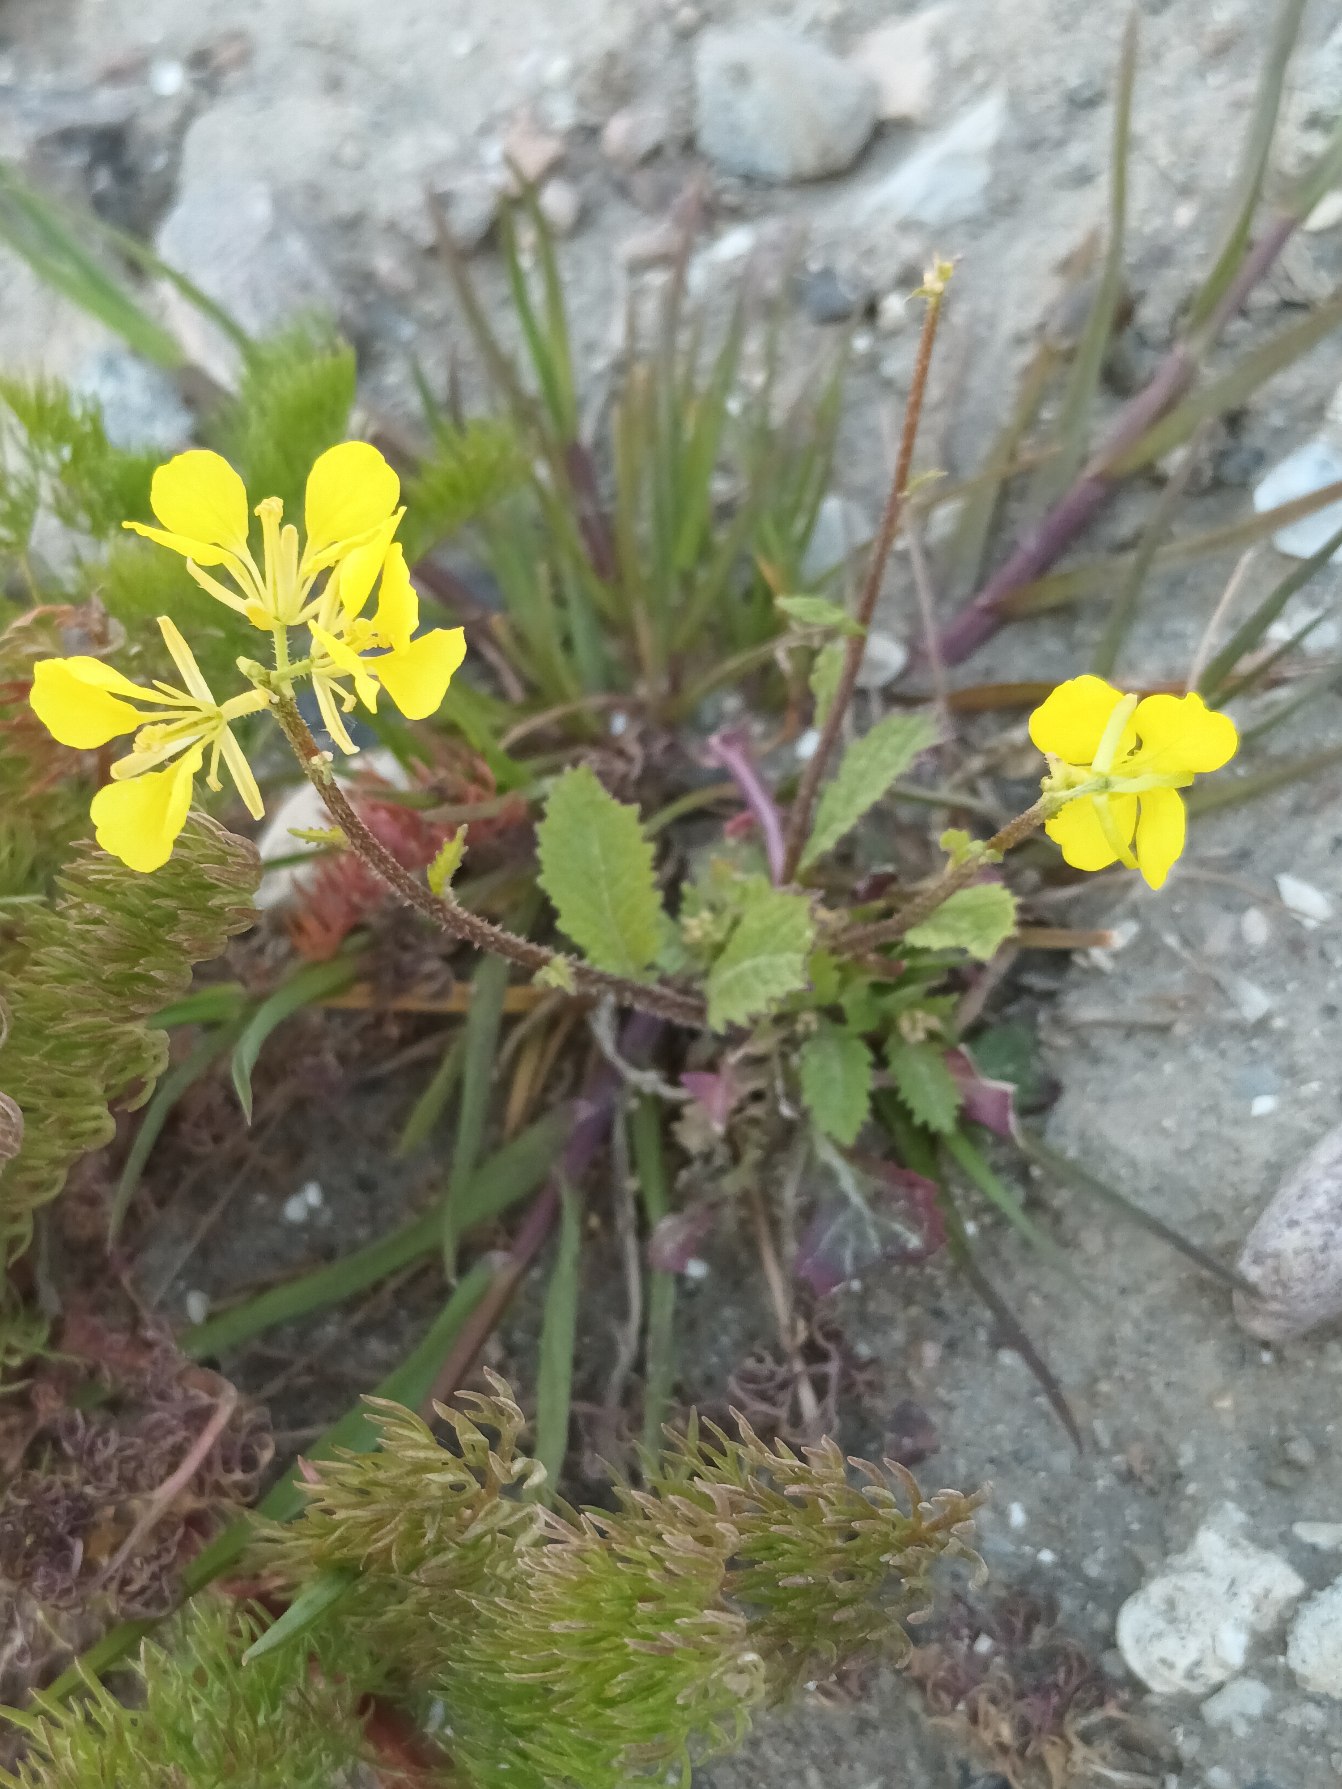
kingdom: Plantae
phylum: Tracheophyta
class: Magnoliopsida
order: Brassicales
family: Brassicaceae
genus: Sinapis
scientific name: Sinapis arvensis
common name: Ager-sennep
